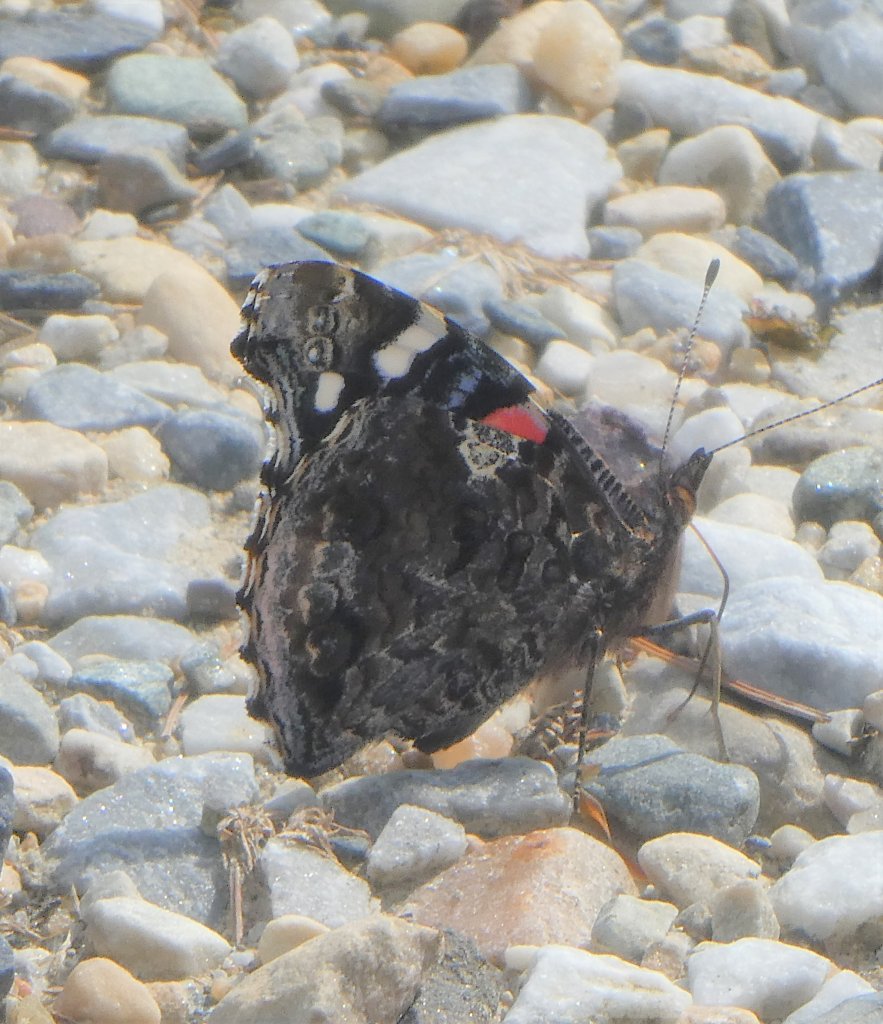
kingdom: Animalia
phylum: Arthropoda
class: Insecta
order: Lepidoptera
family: Nymphalidae
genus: Vanessa
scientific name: Vanessa atalanta
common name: Red Admiral
